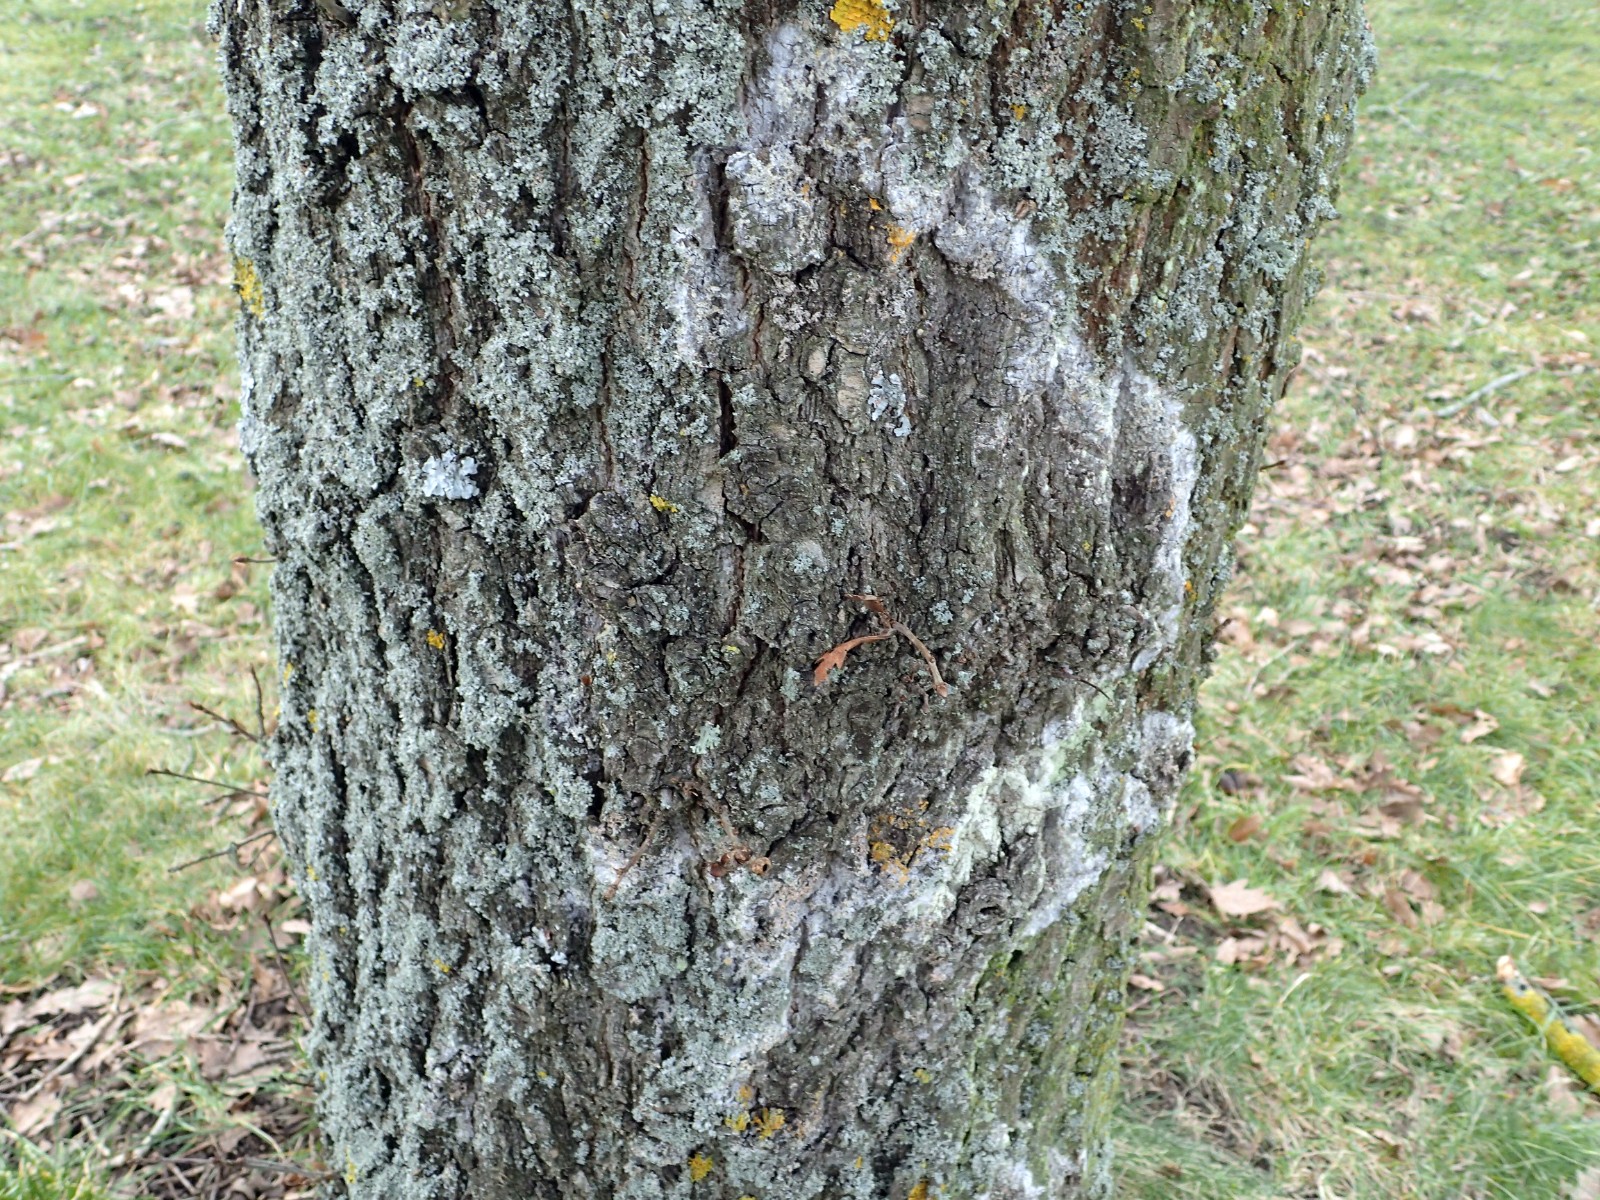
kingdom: Fungi
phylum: Basidiomycota
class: Agaricomycetes
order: Atheliales
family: Atheliaceae
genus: Athelia
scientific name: Athelia arachnoidea
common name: randet barkhinde
